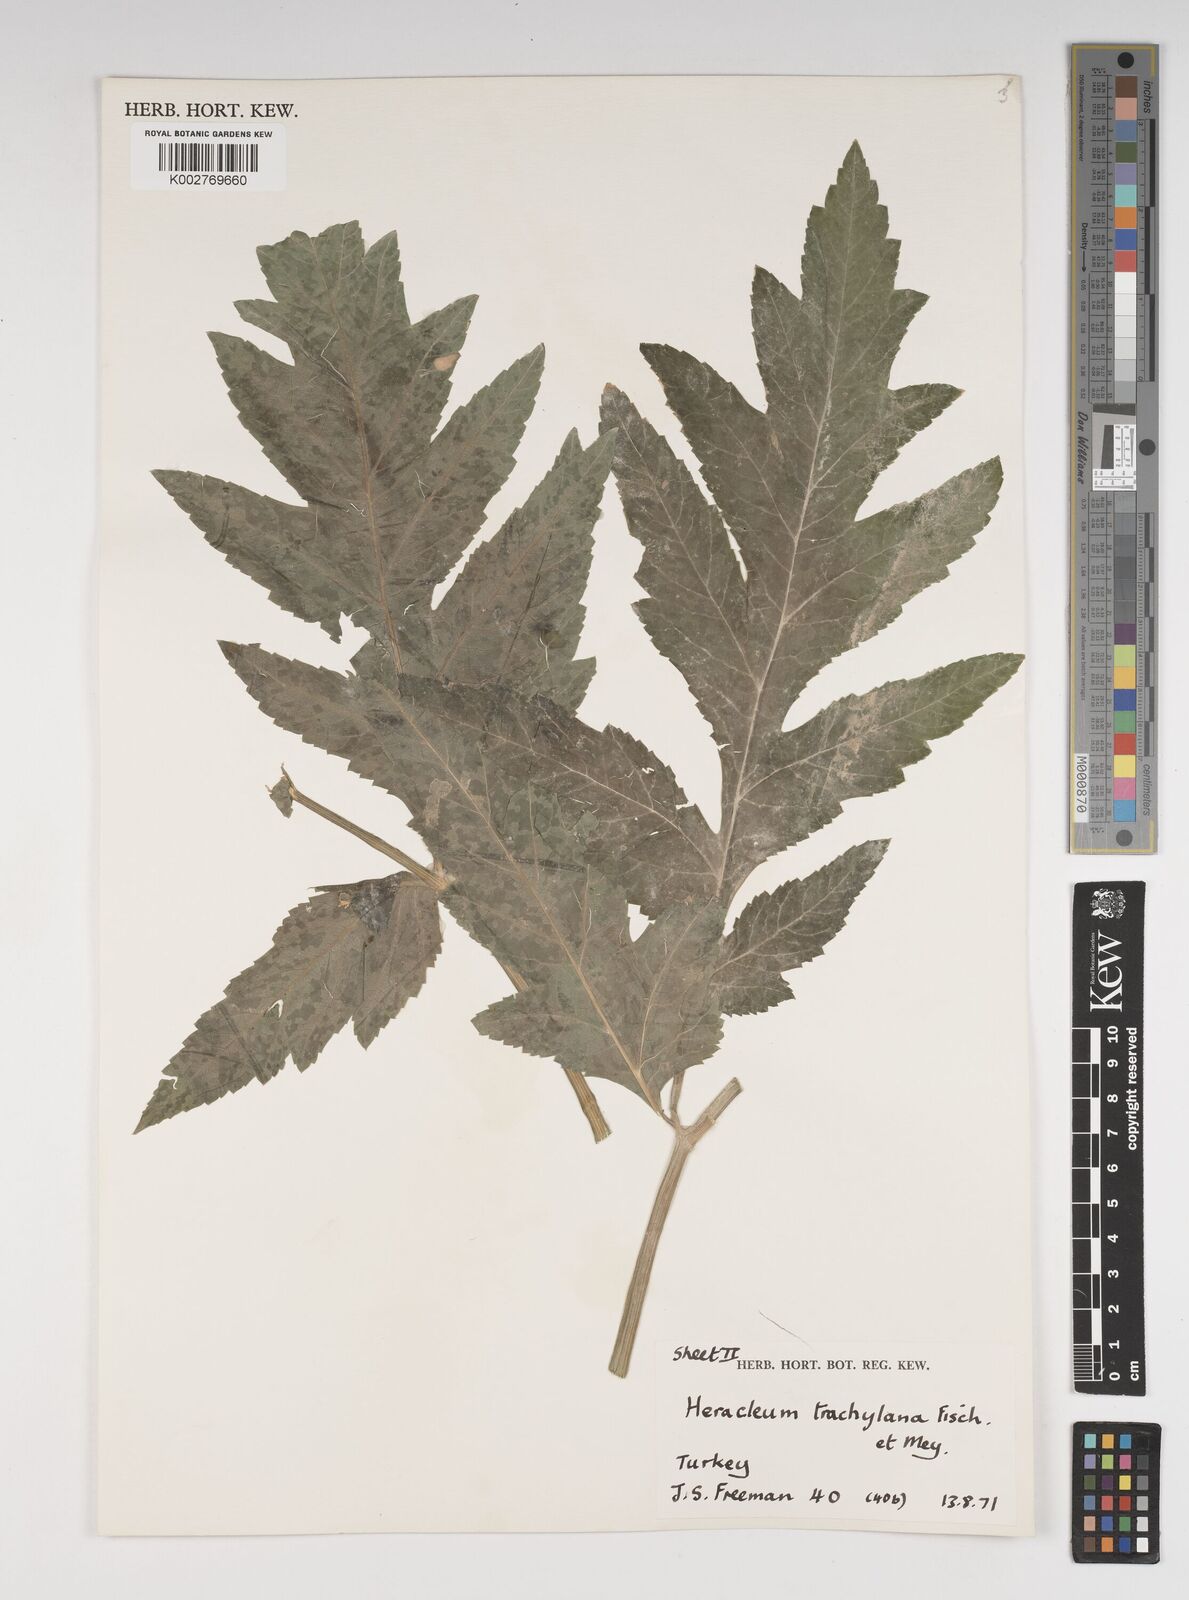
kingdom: Plantae
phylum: Tracheophyta
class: Magnoliopsida
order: Apiales
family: Apiaceae
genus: Heracleum
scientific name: Heracleum trachyloma
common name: Downy cow-parsnip
